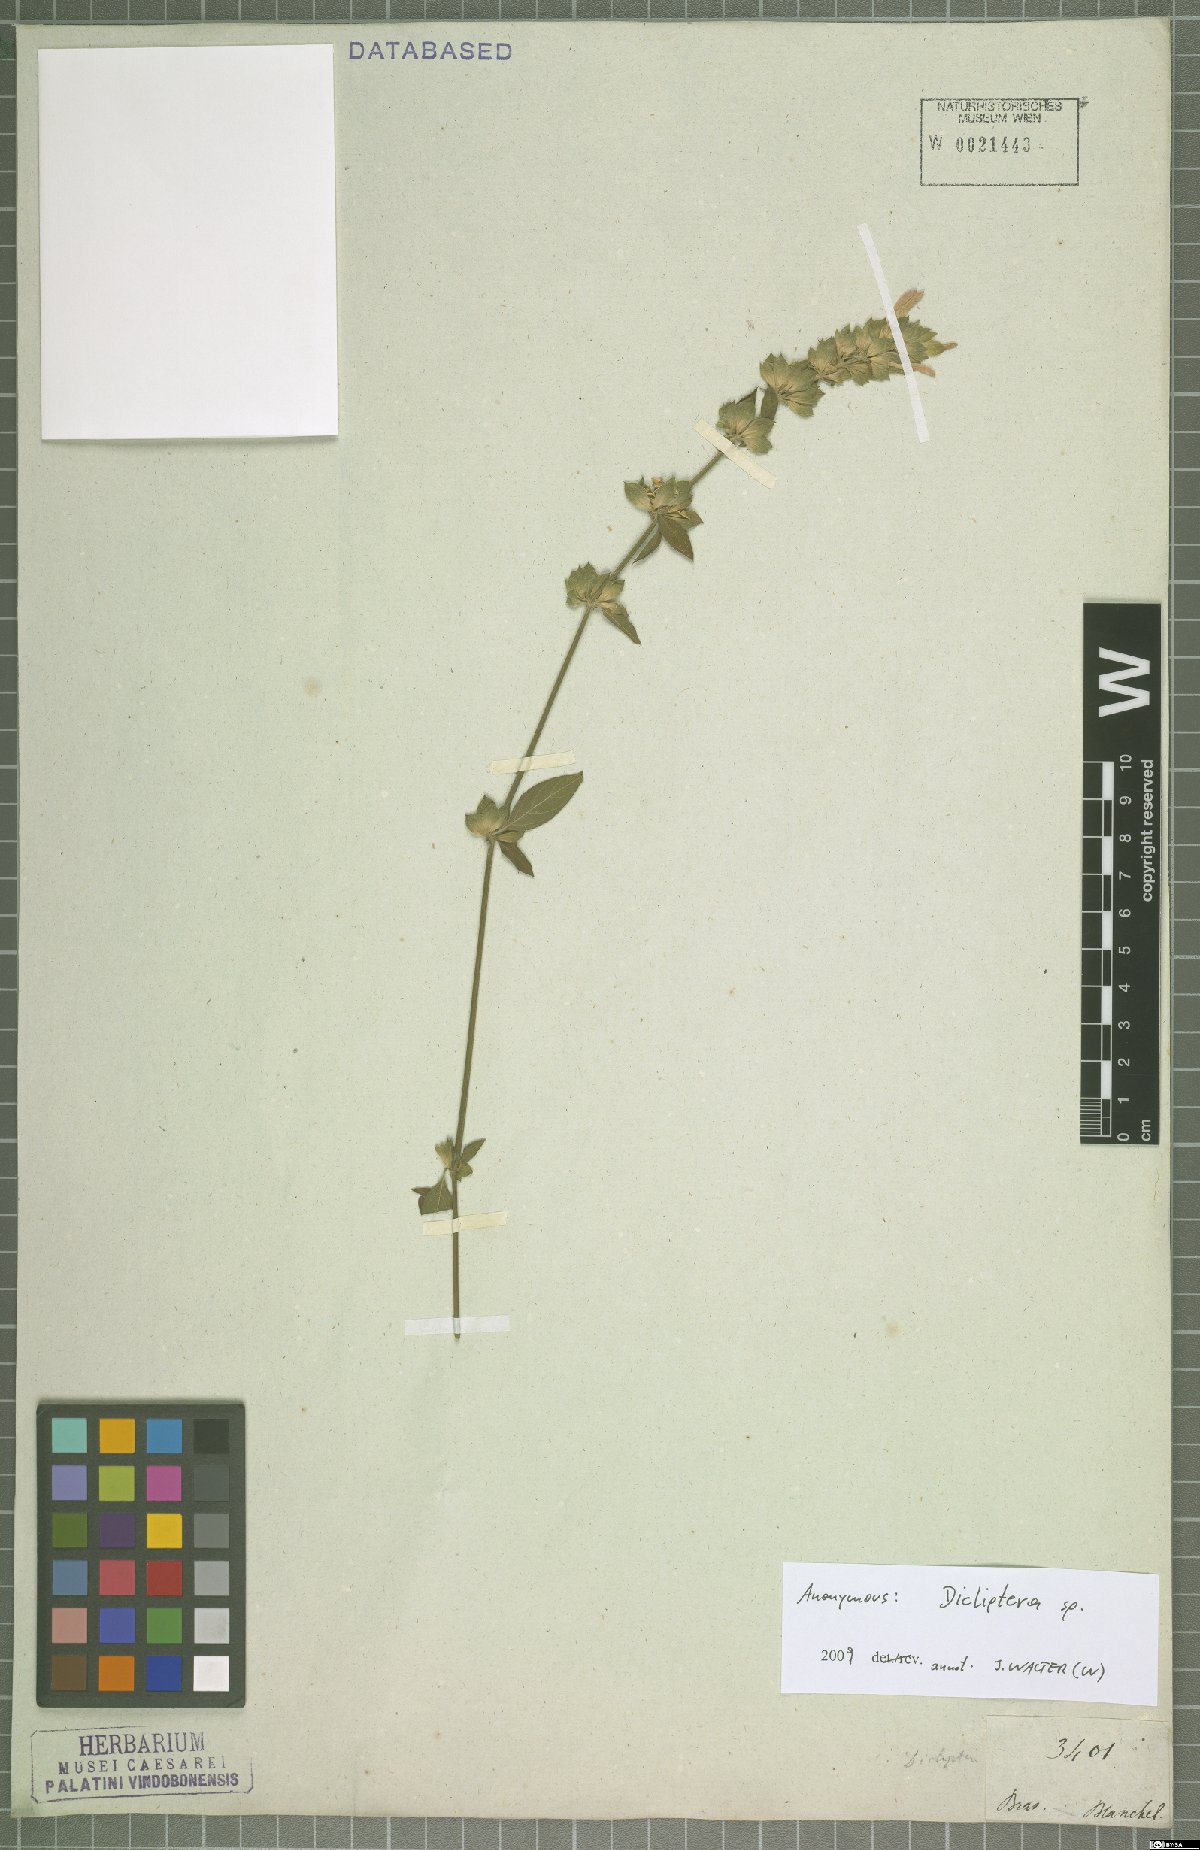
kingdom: Plantae
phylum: Tracheophyta
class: Magnoliopsida
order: Lamiales
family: Acanthaceae
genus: Dicliptera
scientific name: Dicliptera
